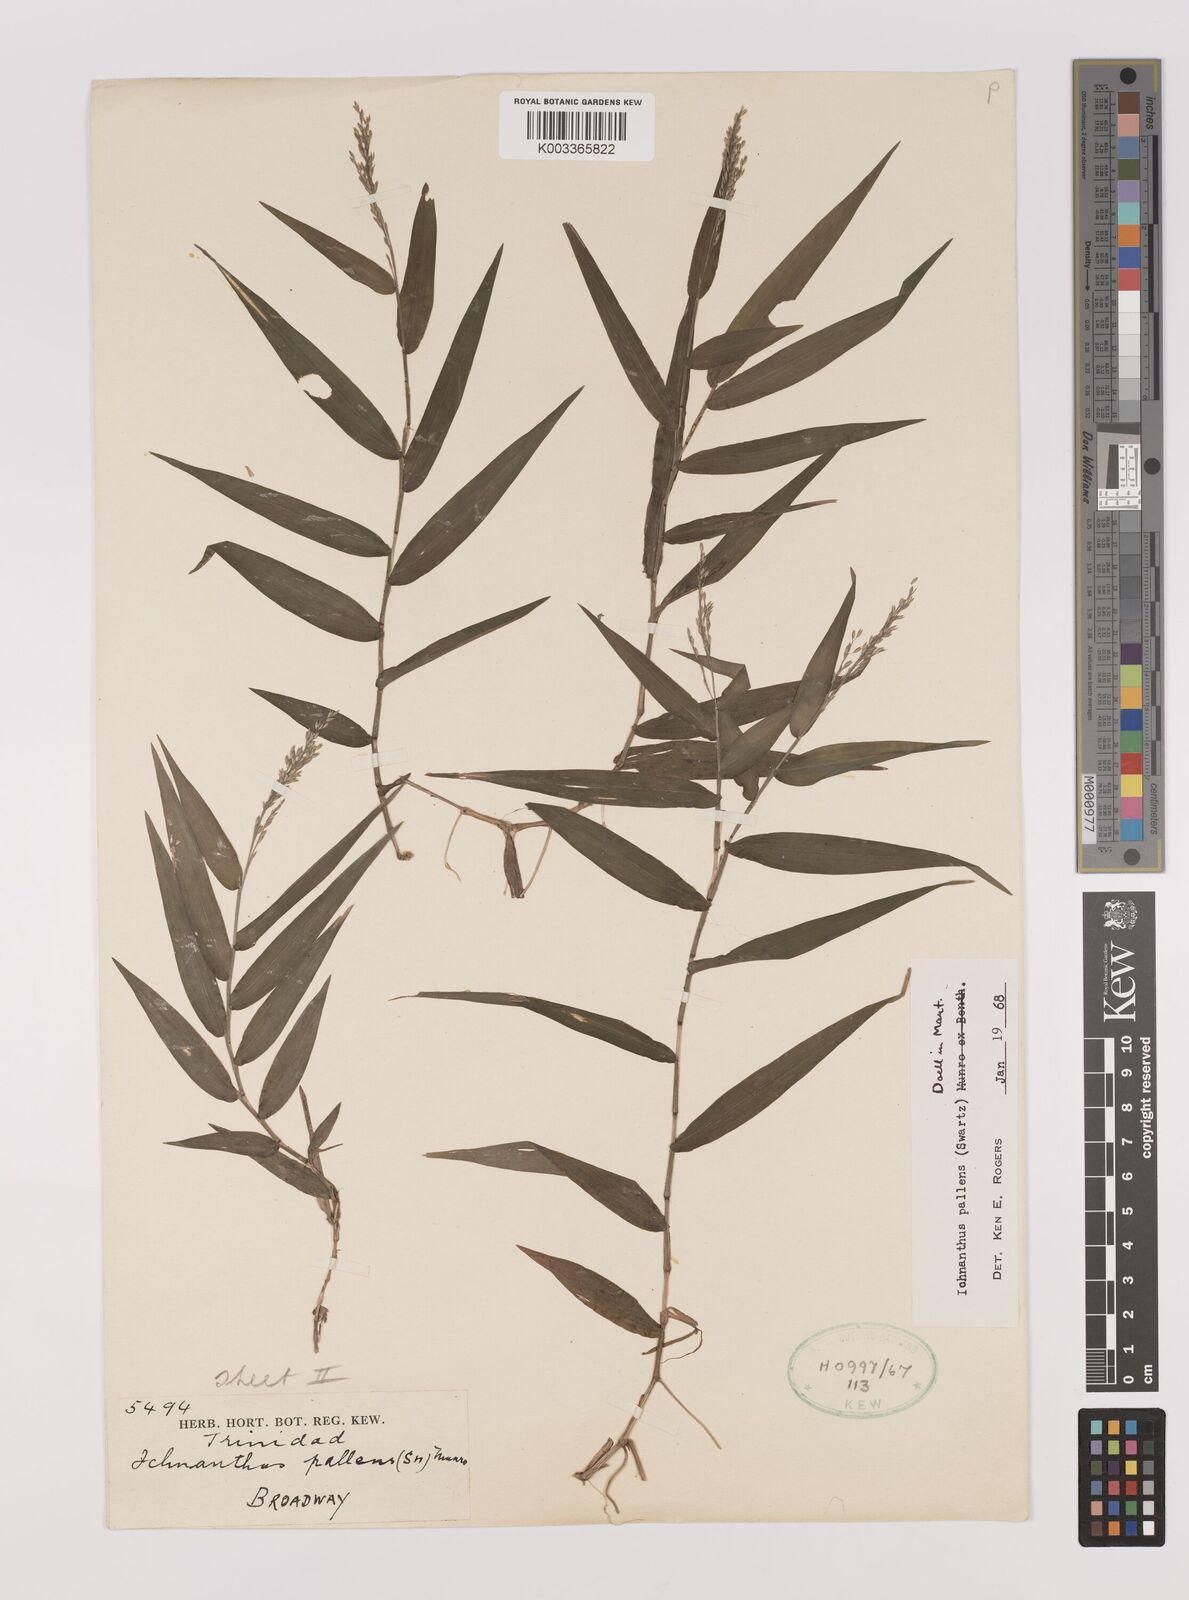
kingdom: Plantae
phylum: Tracheophyta
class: Liliopsida
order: Poales
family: Poaceae
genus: Ichnanthus
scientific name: Ichnanthus pallens
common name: Water grass
